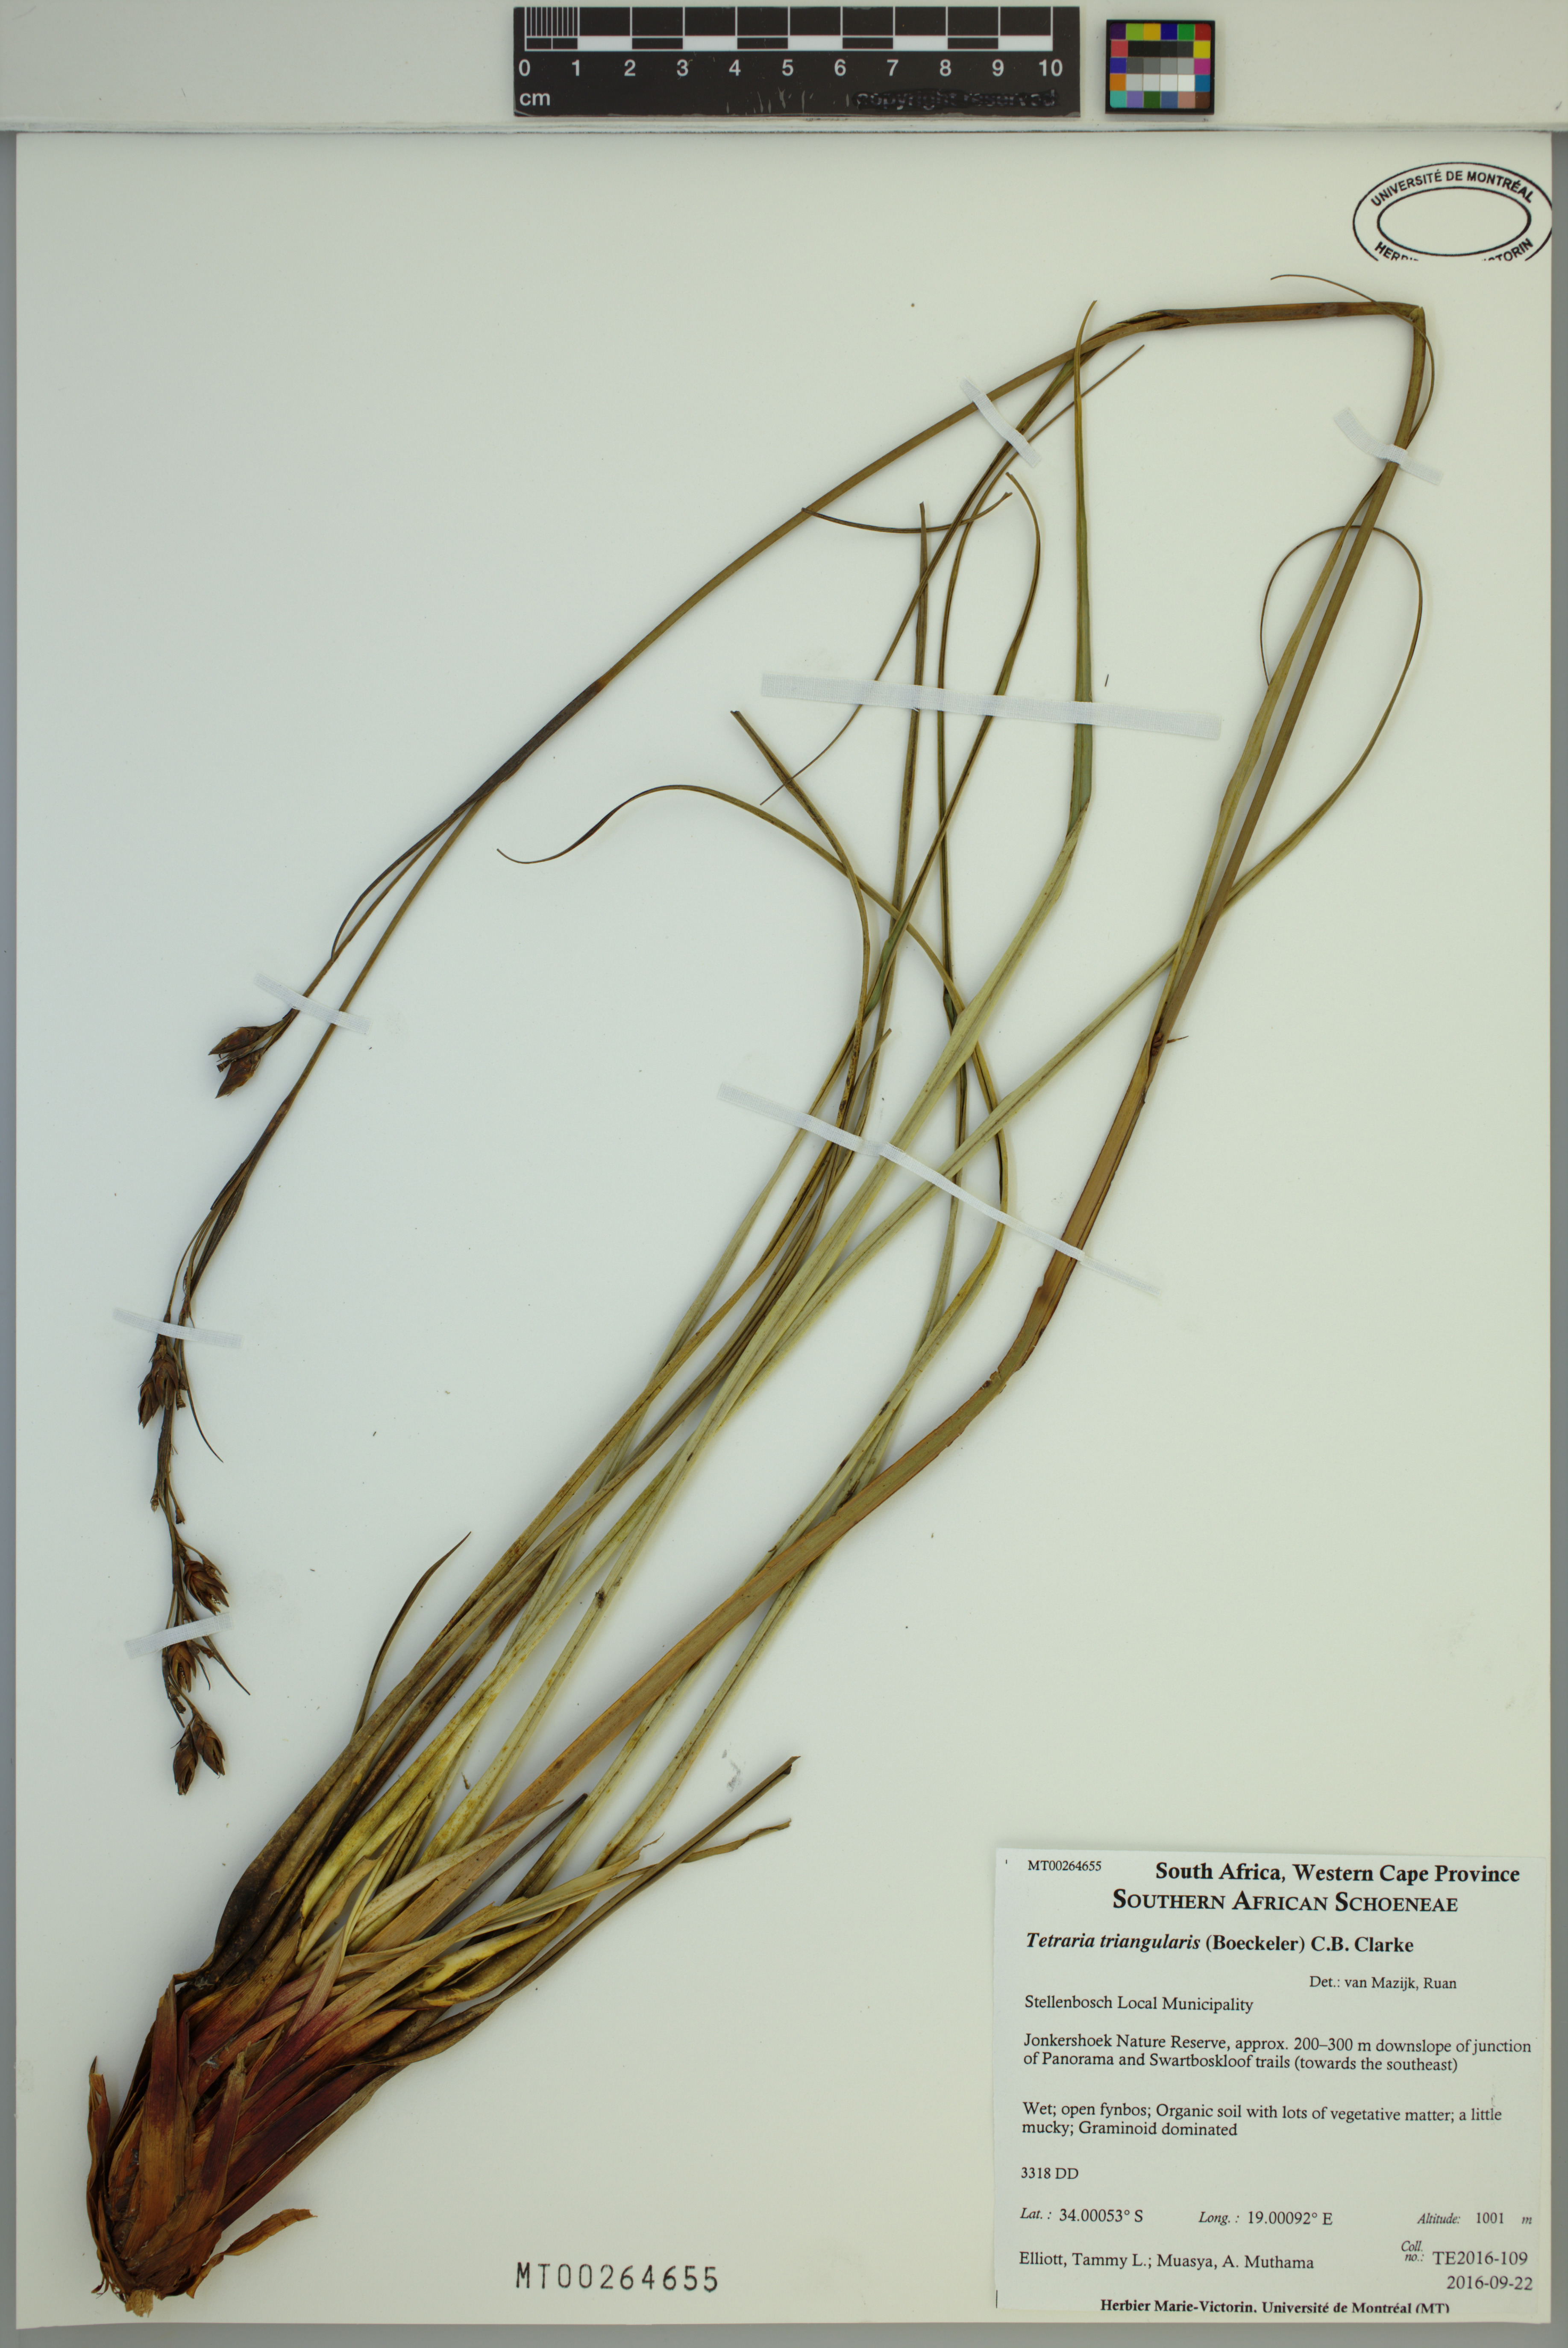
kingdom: Plantae
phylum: Tracheophyta
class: Liliopsida
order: Poales
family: Cyperaceae
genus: Tetraria
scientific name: Tetraria triangularis
